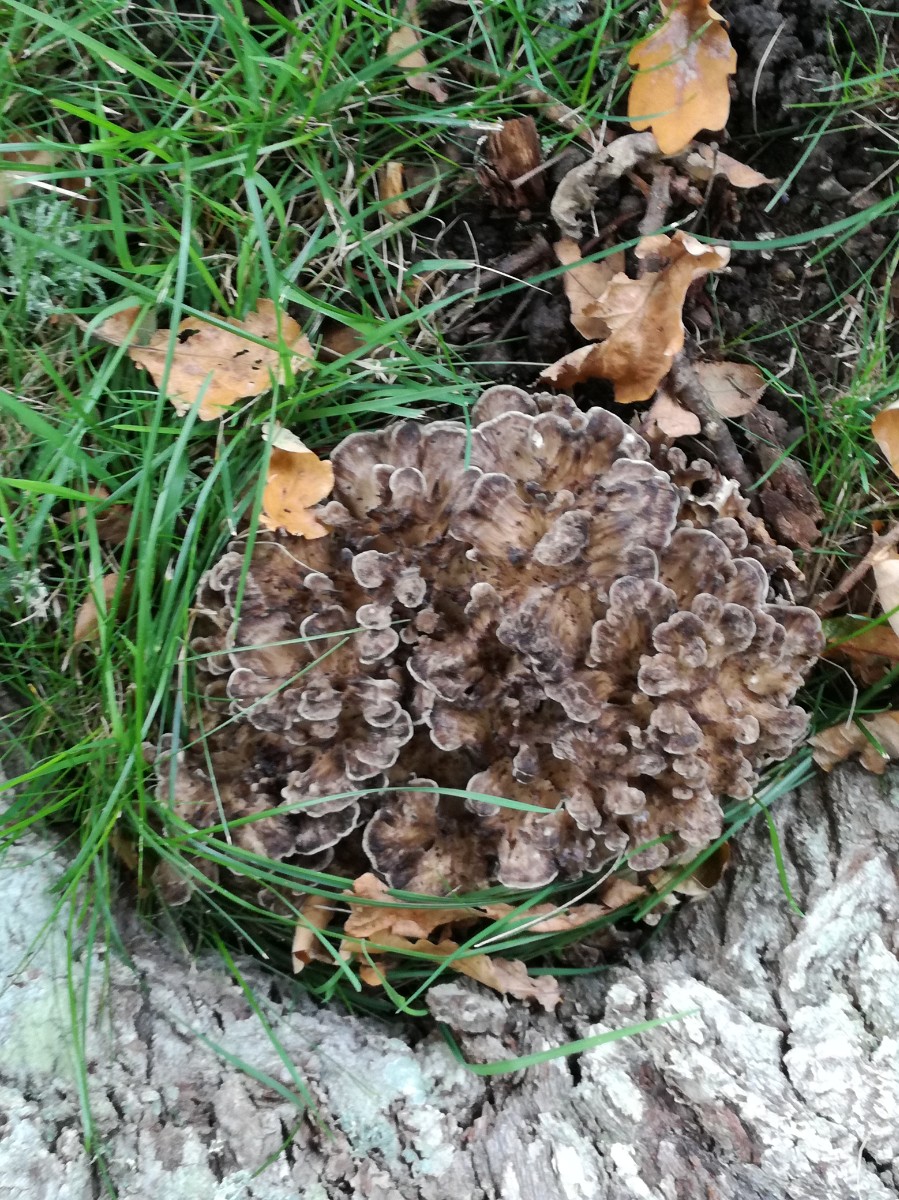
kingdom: Fungi
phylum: Basidiomycota
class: Agaricomycetes
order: Polyporales
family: Grifolaceae
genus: Grifola
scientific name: Grifola frondosa
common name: tueporesvamp
